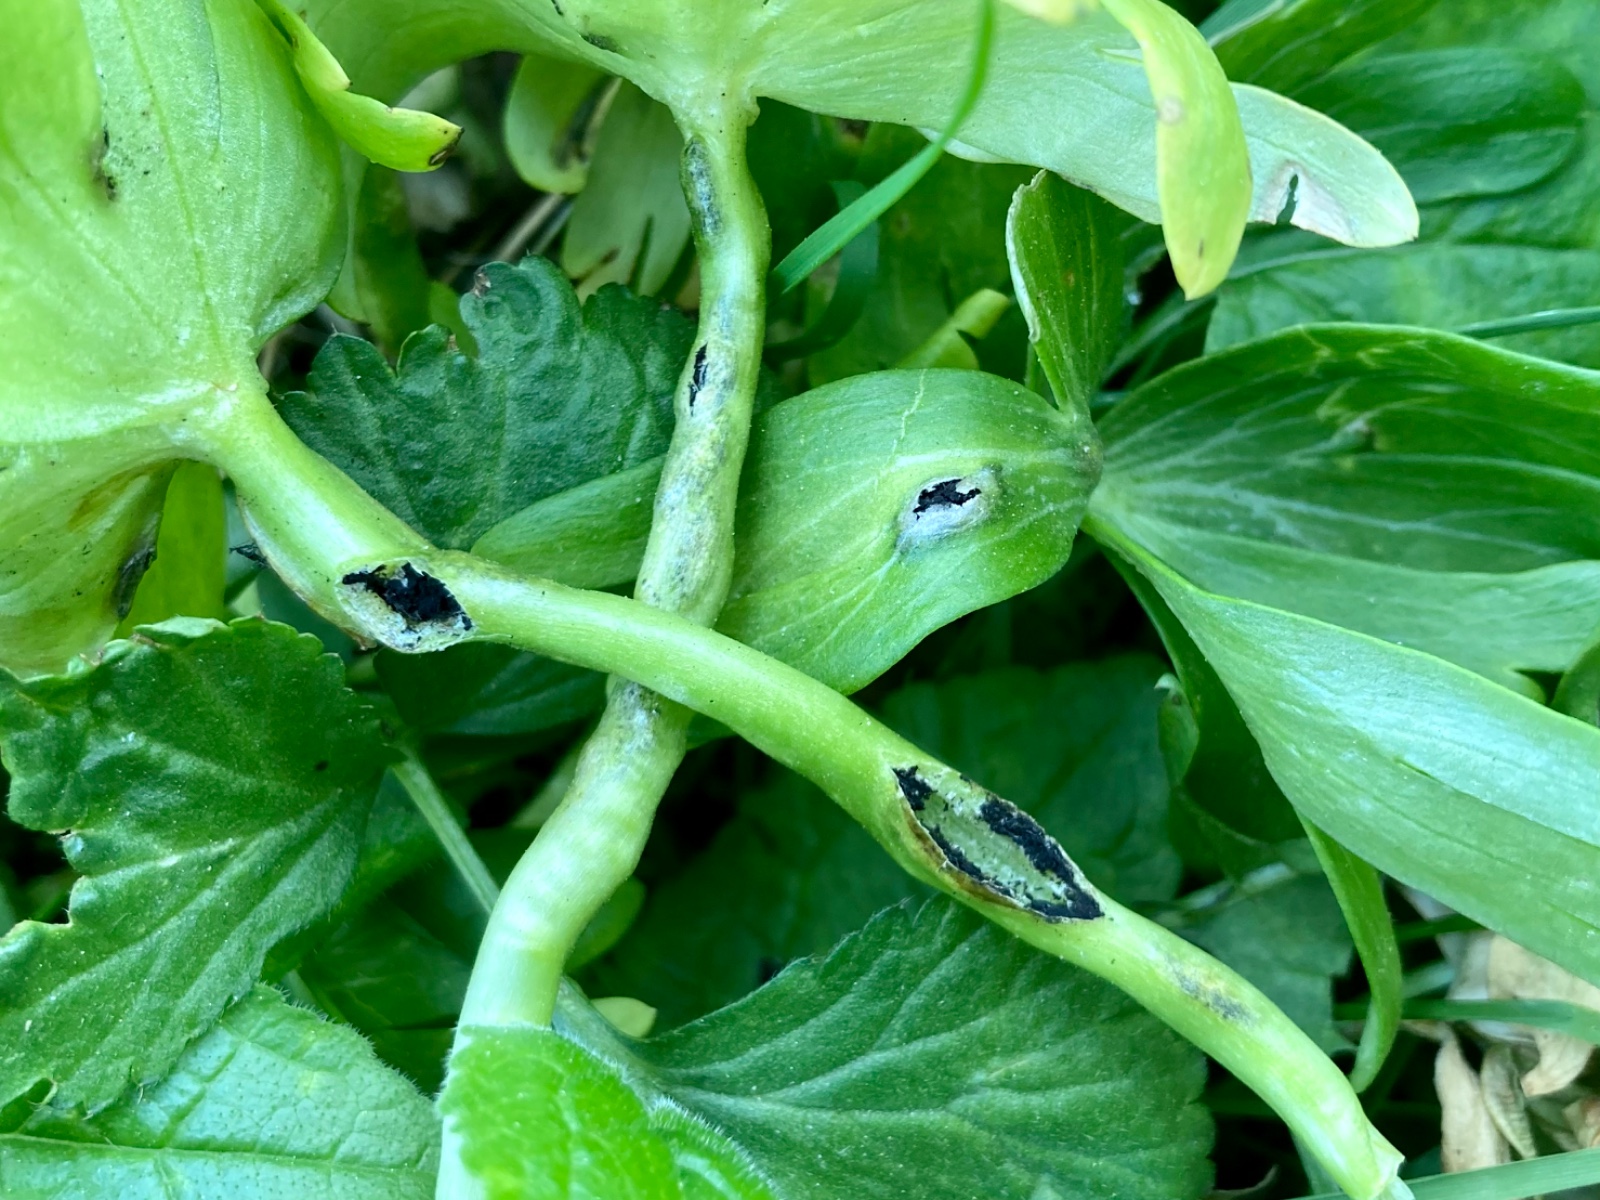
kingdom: Fungi
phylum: Basidiomycota
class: Ustilaginomycetes
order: Urocystidales
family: Urocystidaceae
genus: Urocystis
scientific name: Urocystis eranthidis
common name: erantis-brand
